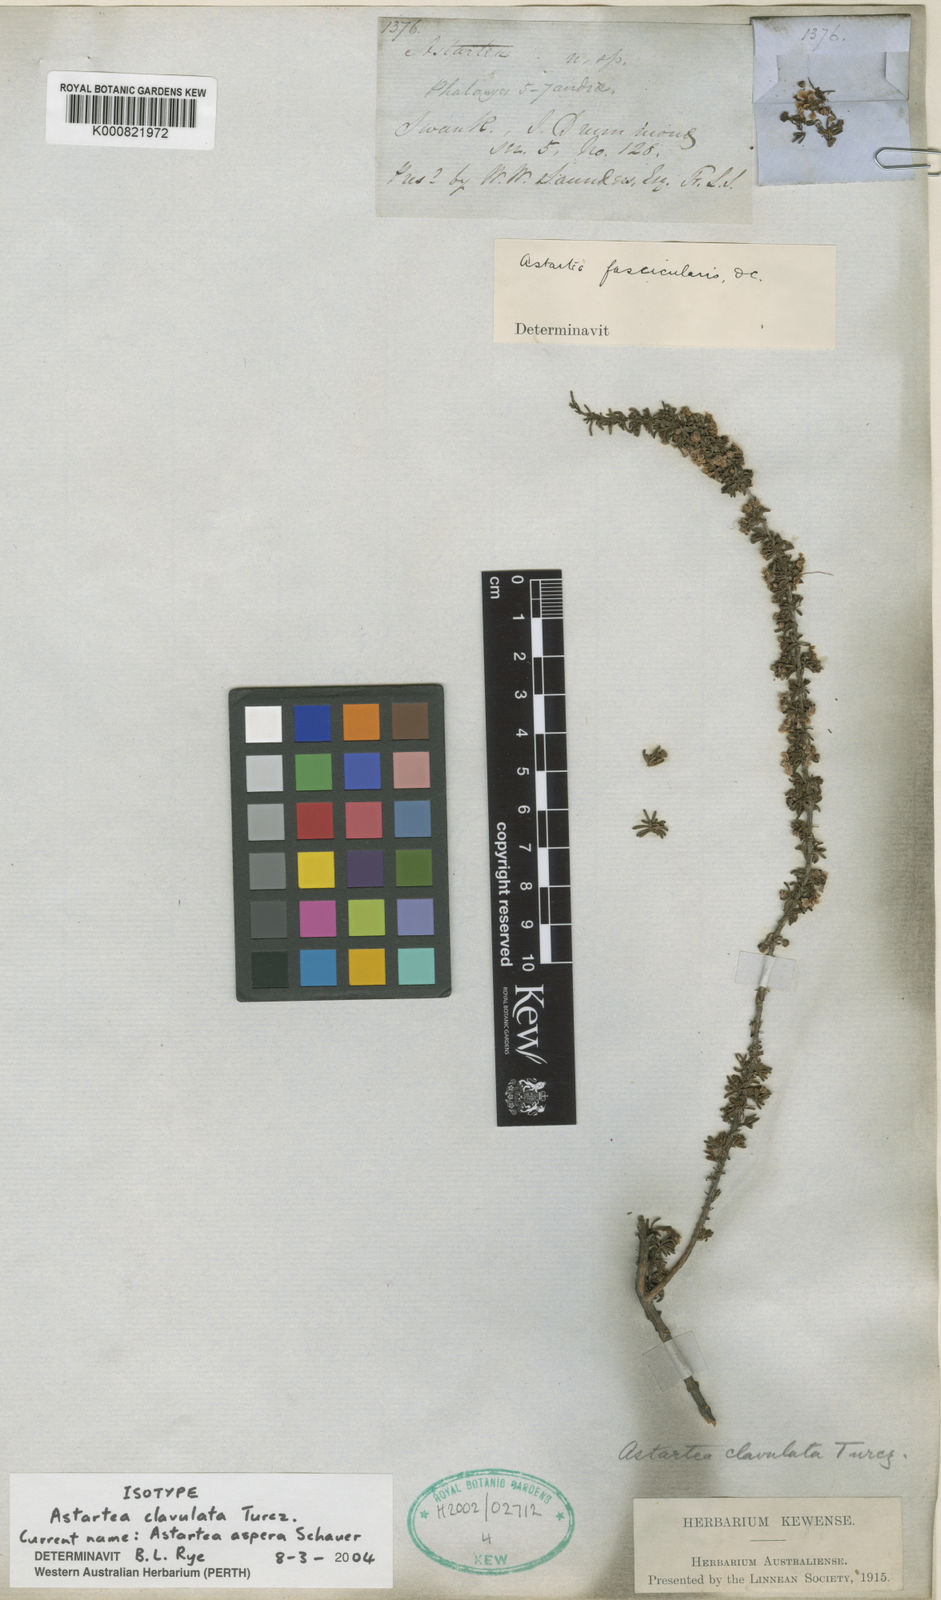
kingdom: Plantae
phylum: Tracheophyta
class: Magnoliopsida
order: Myrtales
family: Myrtaceae
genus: Astartea
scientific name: Astartea aspera
